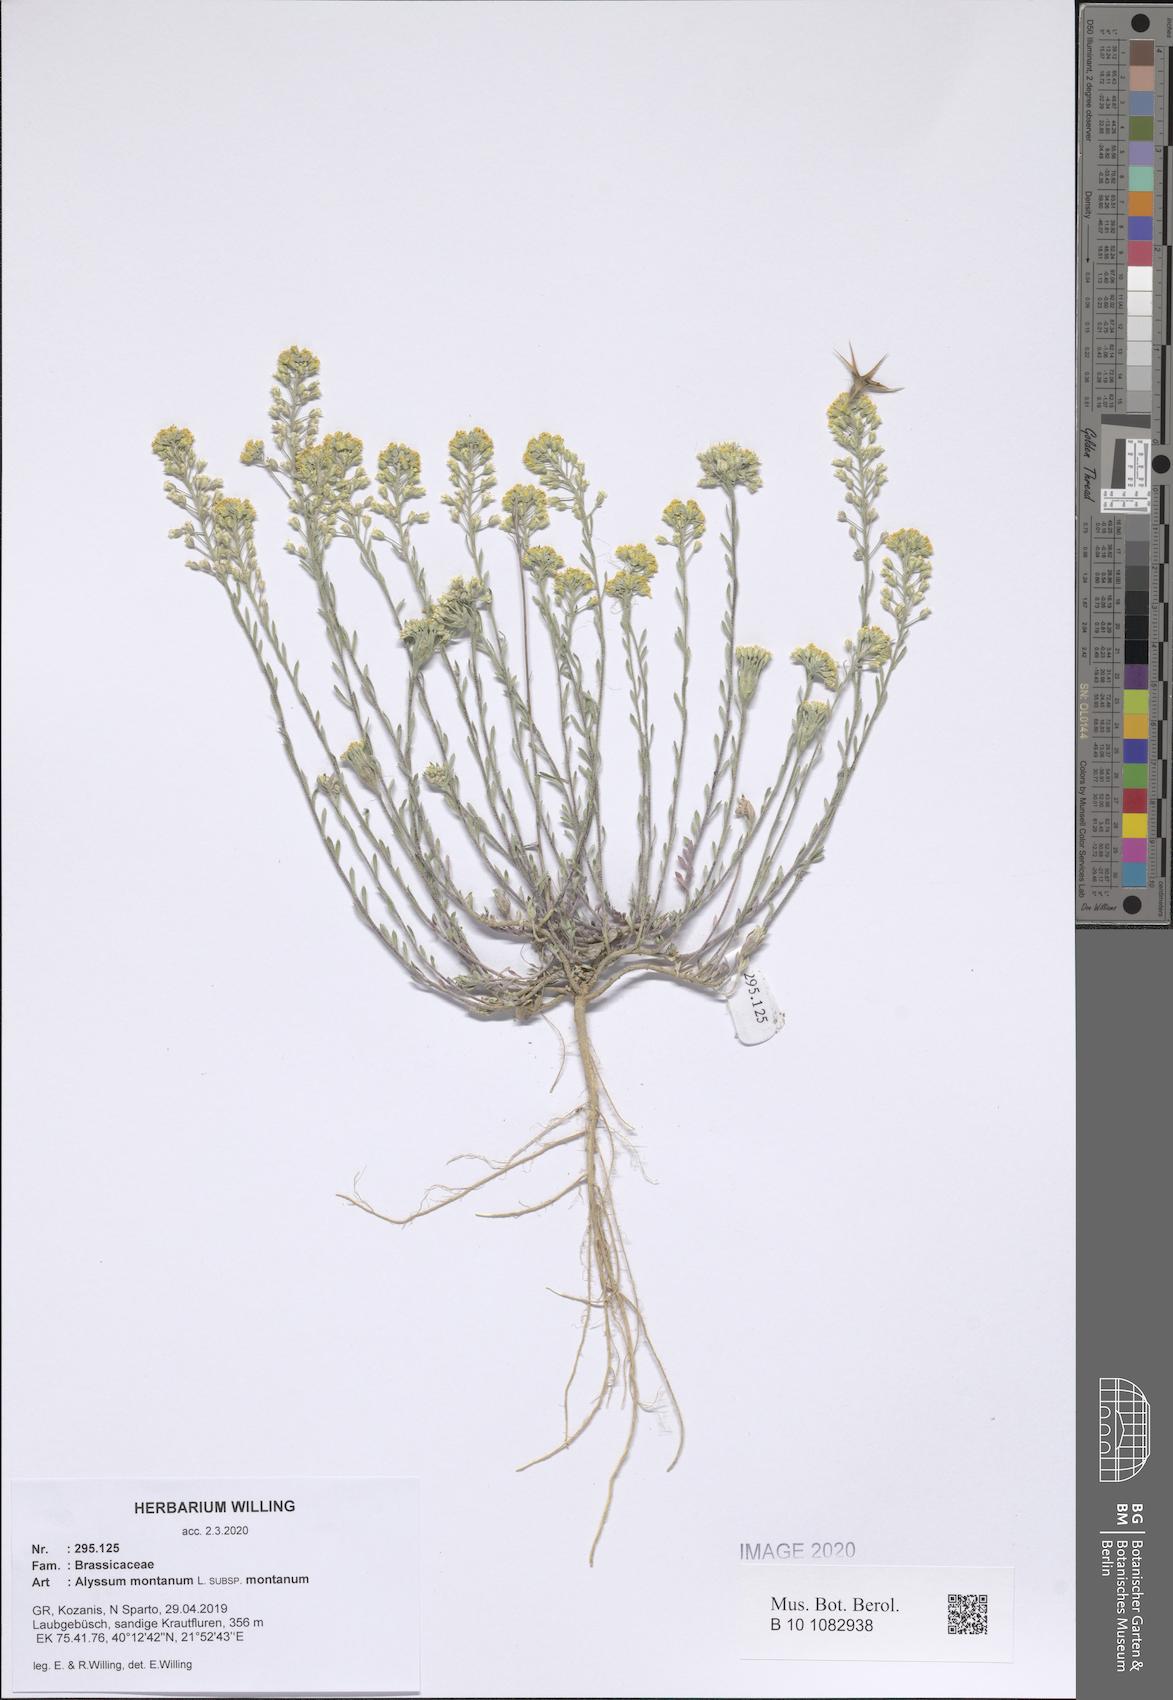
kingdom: Plantae
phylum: Tracheophyta
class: Magnoliopsida
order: Brassicales
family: Brassicaceae
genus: Alyssum
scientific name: Alyssum montanum
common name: Mountain alison
